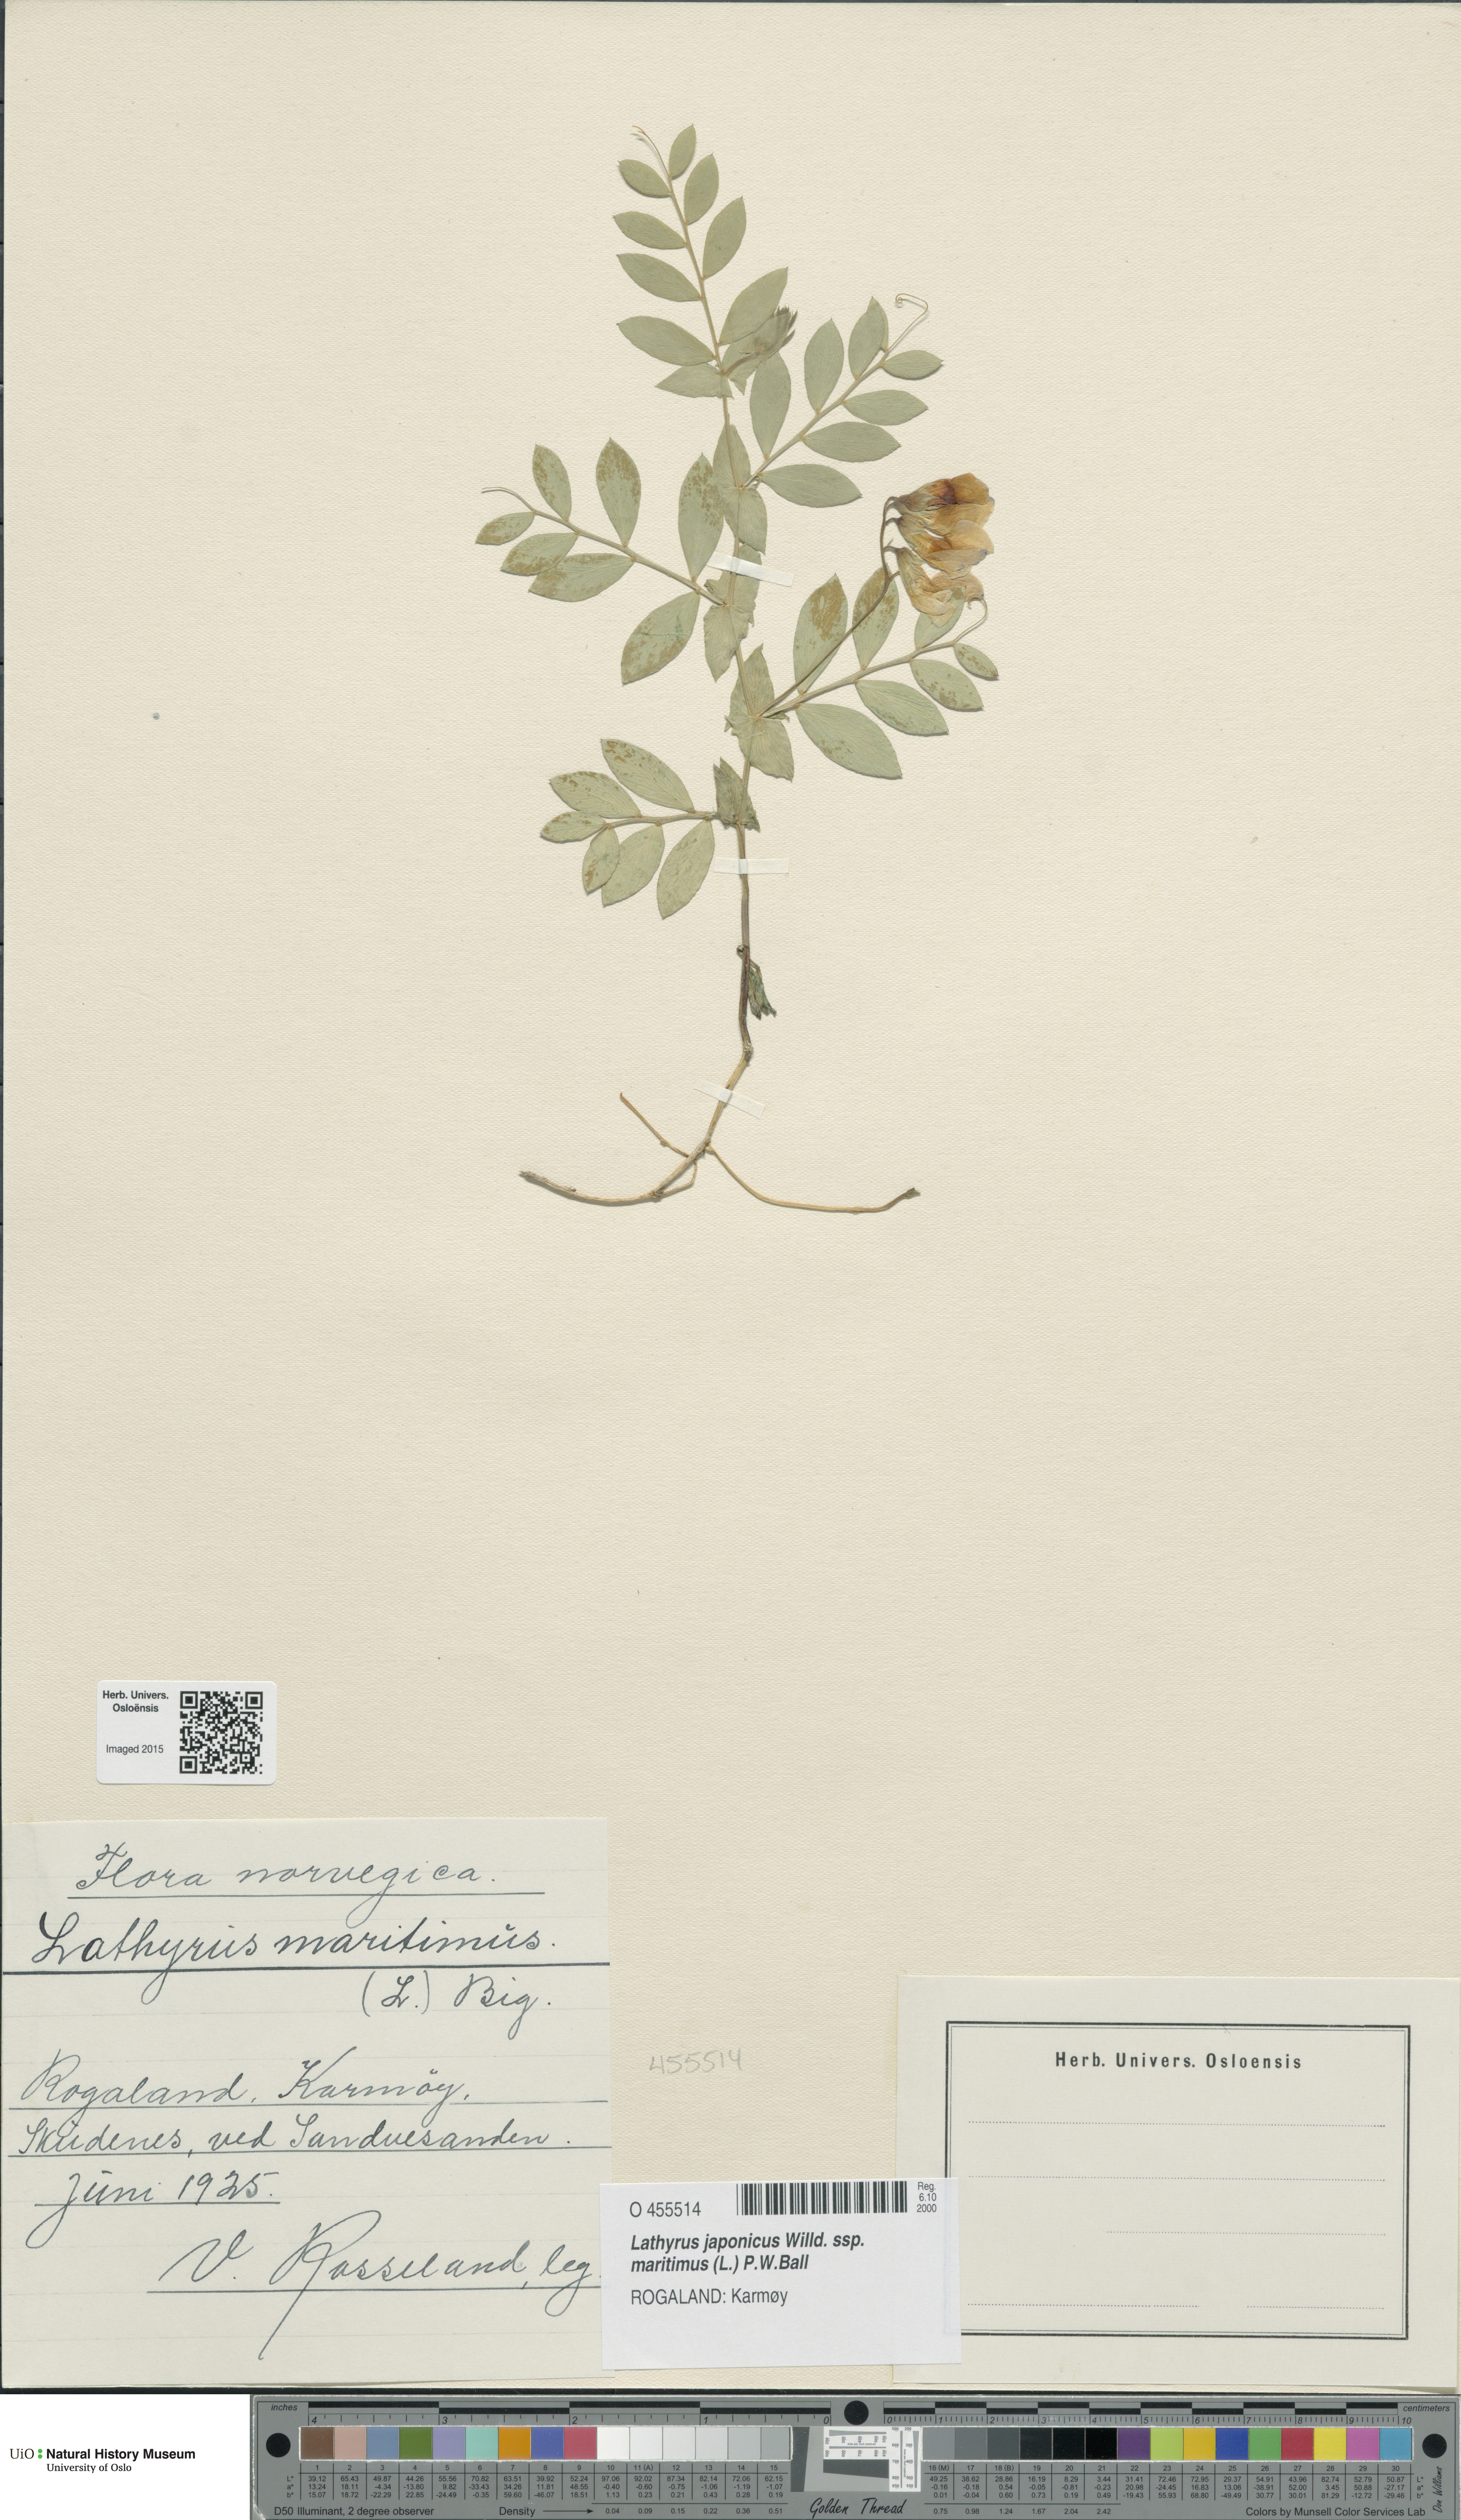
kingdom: Plantae
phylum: Tracheophyta
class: Magnoliopsida
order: Fabales
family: Fabaceae
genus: Lathyrus
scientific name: Lathyrus japonicus
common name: Sea pea
